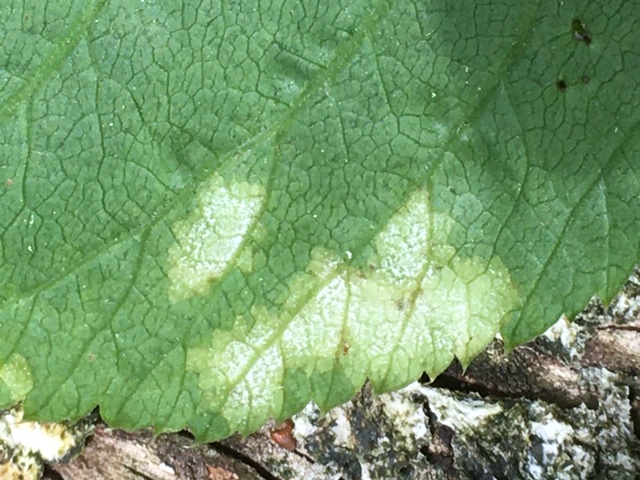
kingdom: Chromista
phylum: Oomycota
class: Peronosporea
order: Peronosporales
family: Peronosporaceae
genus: Peronospora
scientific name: Peronospora crustosa
